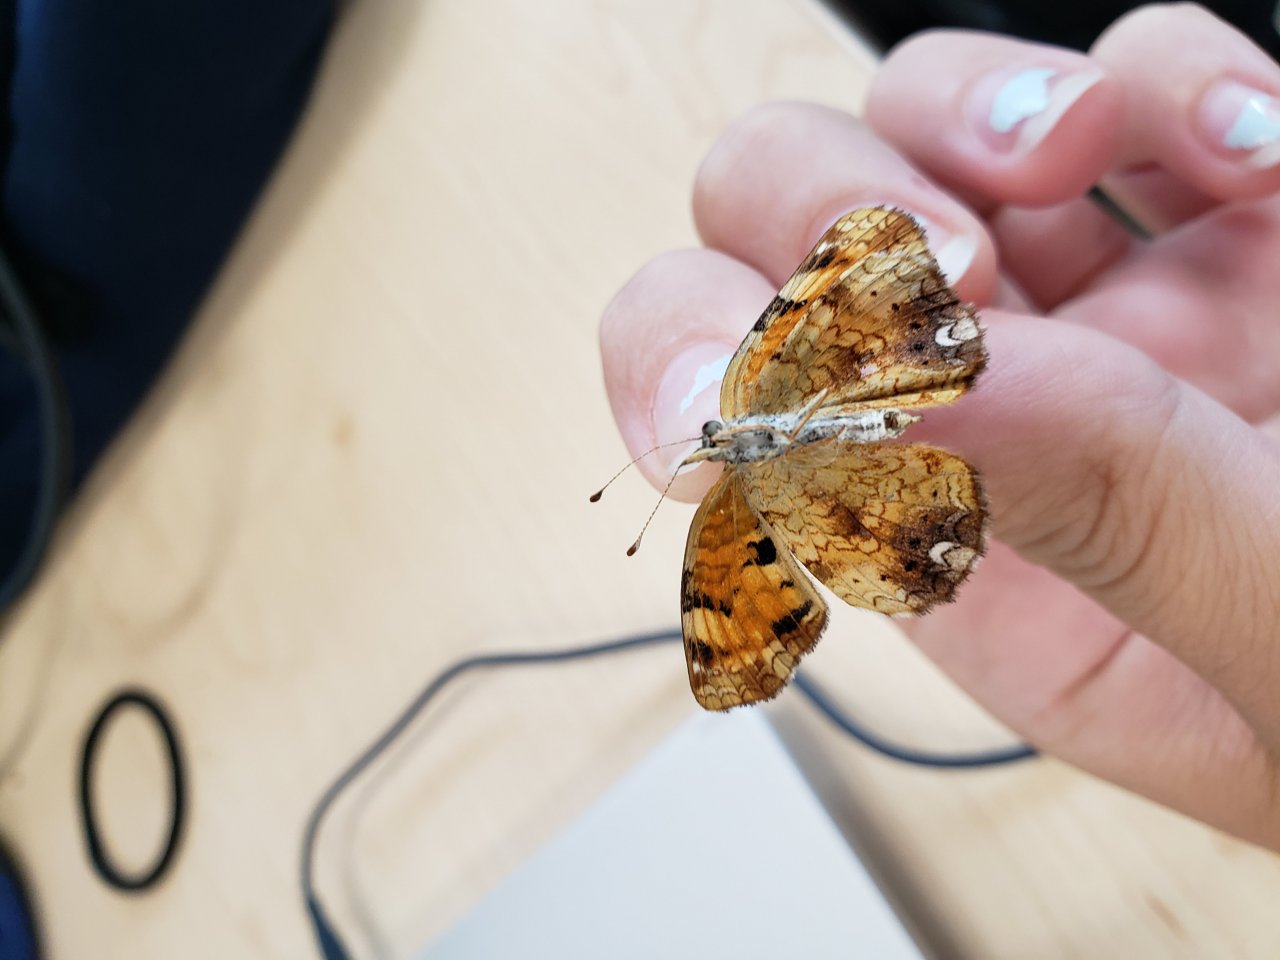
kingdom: Animalia
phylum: Arthropoda
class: Insecta
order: Lepidoptera
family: Nymphalidae
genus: Phyciodes
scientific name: Phyciodes tharos
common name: Northern Crescent
